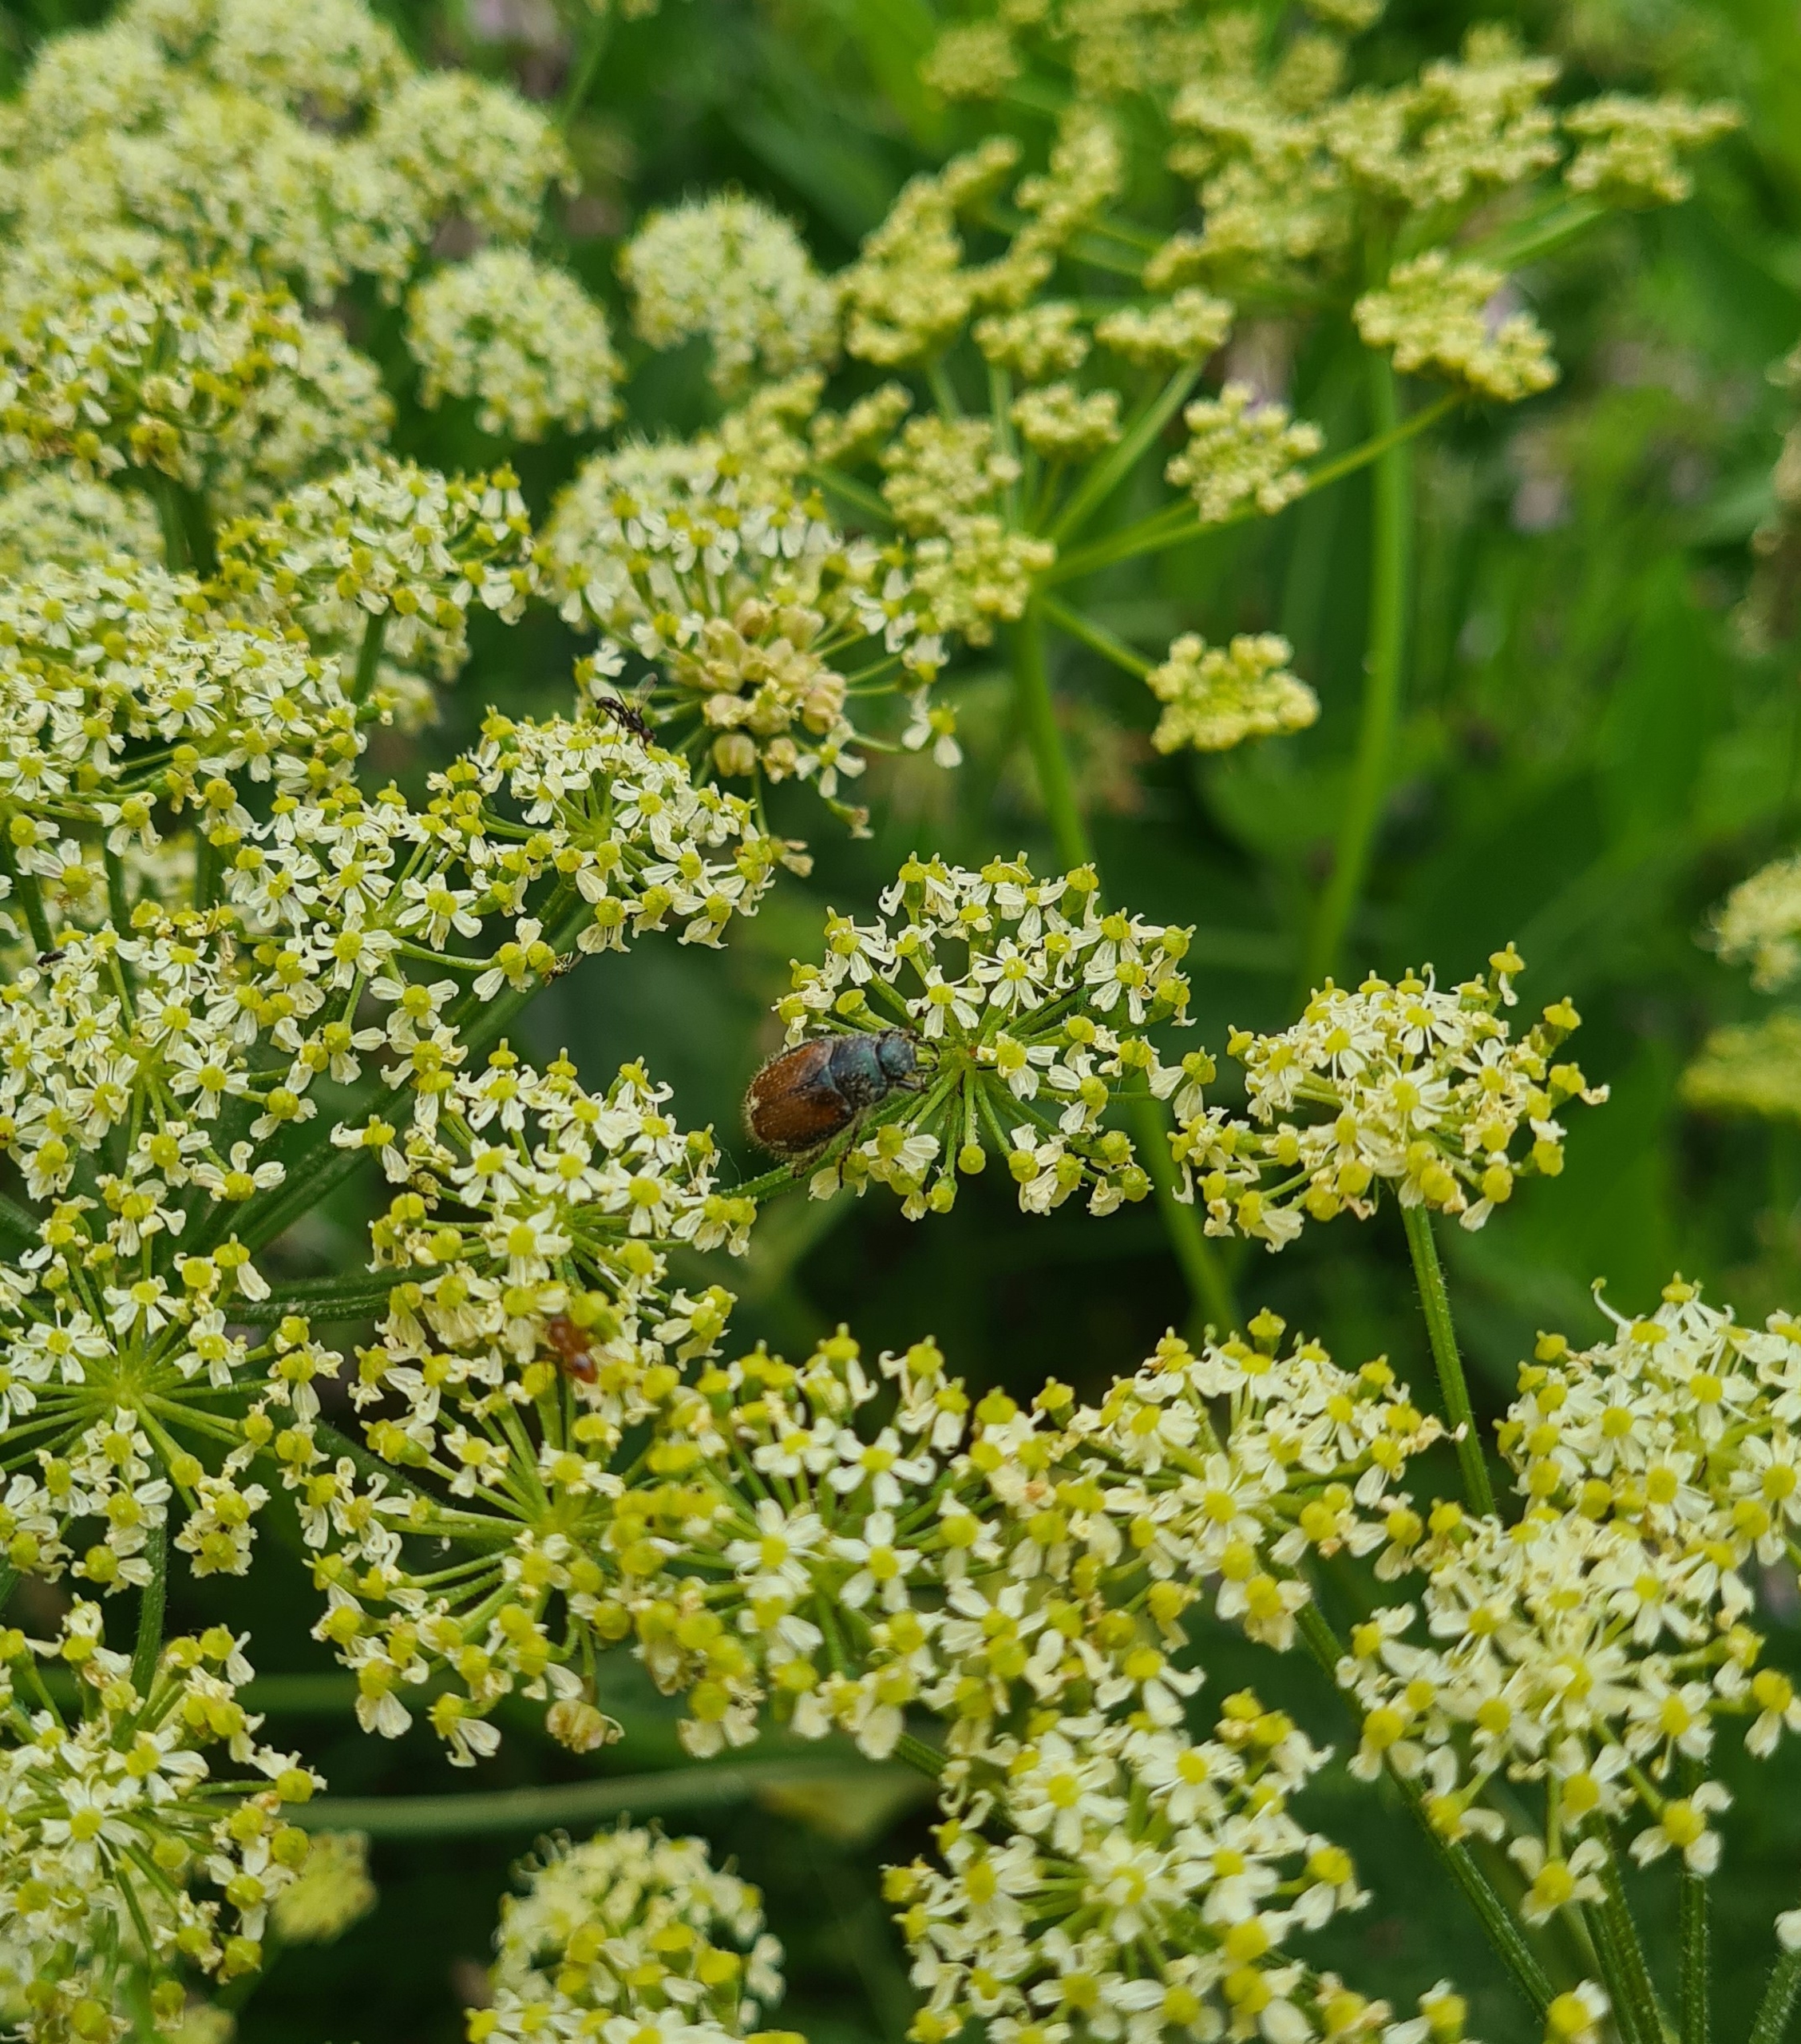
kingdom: Animalia
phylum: Arthropoda
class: Insecta
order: Coleoptera
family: Scarabaeidae
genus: Phyllopertha
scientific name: Phyllopertha horticola
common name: Gåsebille
